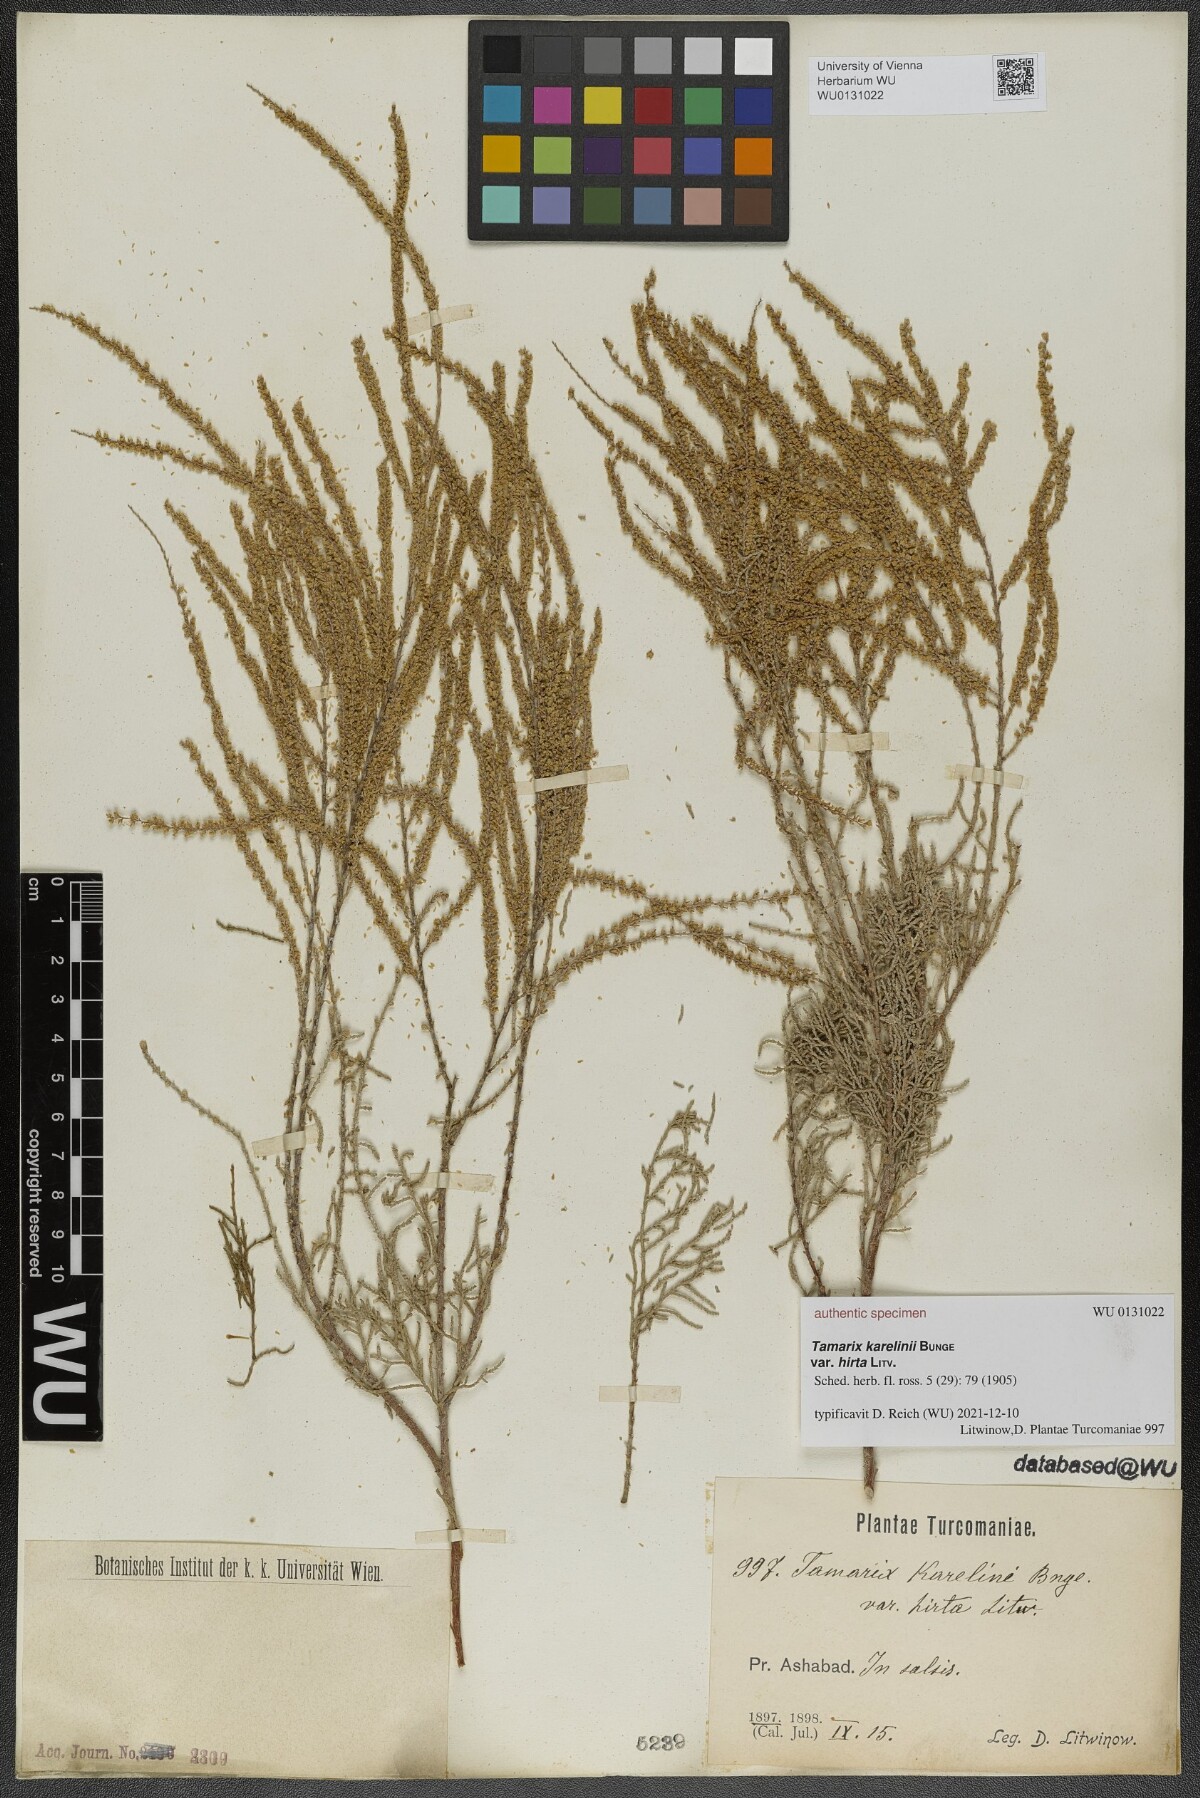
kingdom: Plantae
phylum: Tracheophyta
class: Magnoliopsida
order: Caryophyllales
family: Tamaricaceae
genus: Tamarix
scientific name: Tamarix hispida
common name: Kashgar tamarisk
